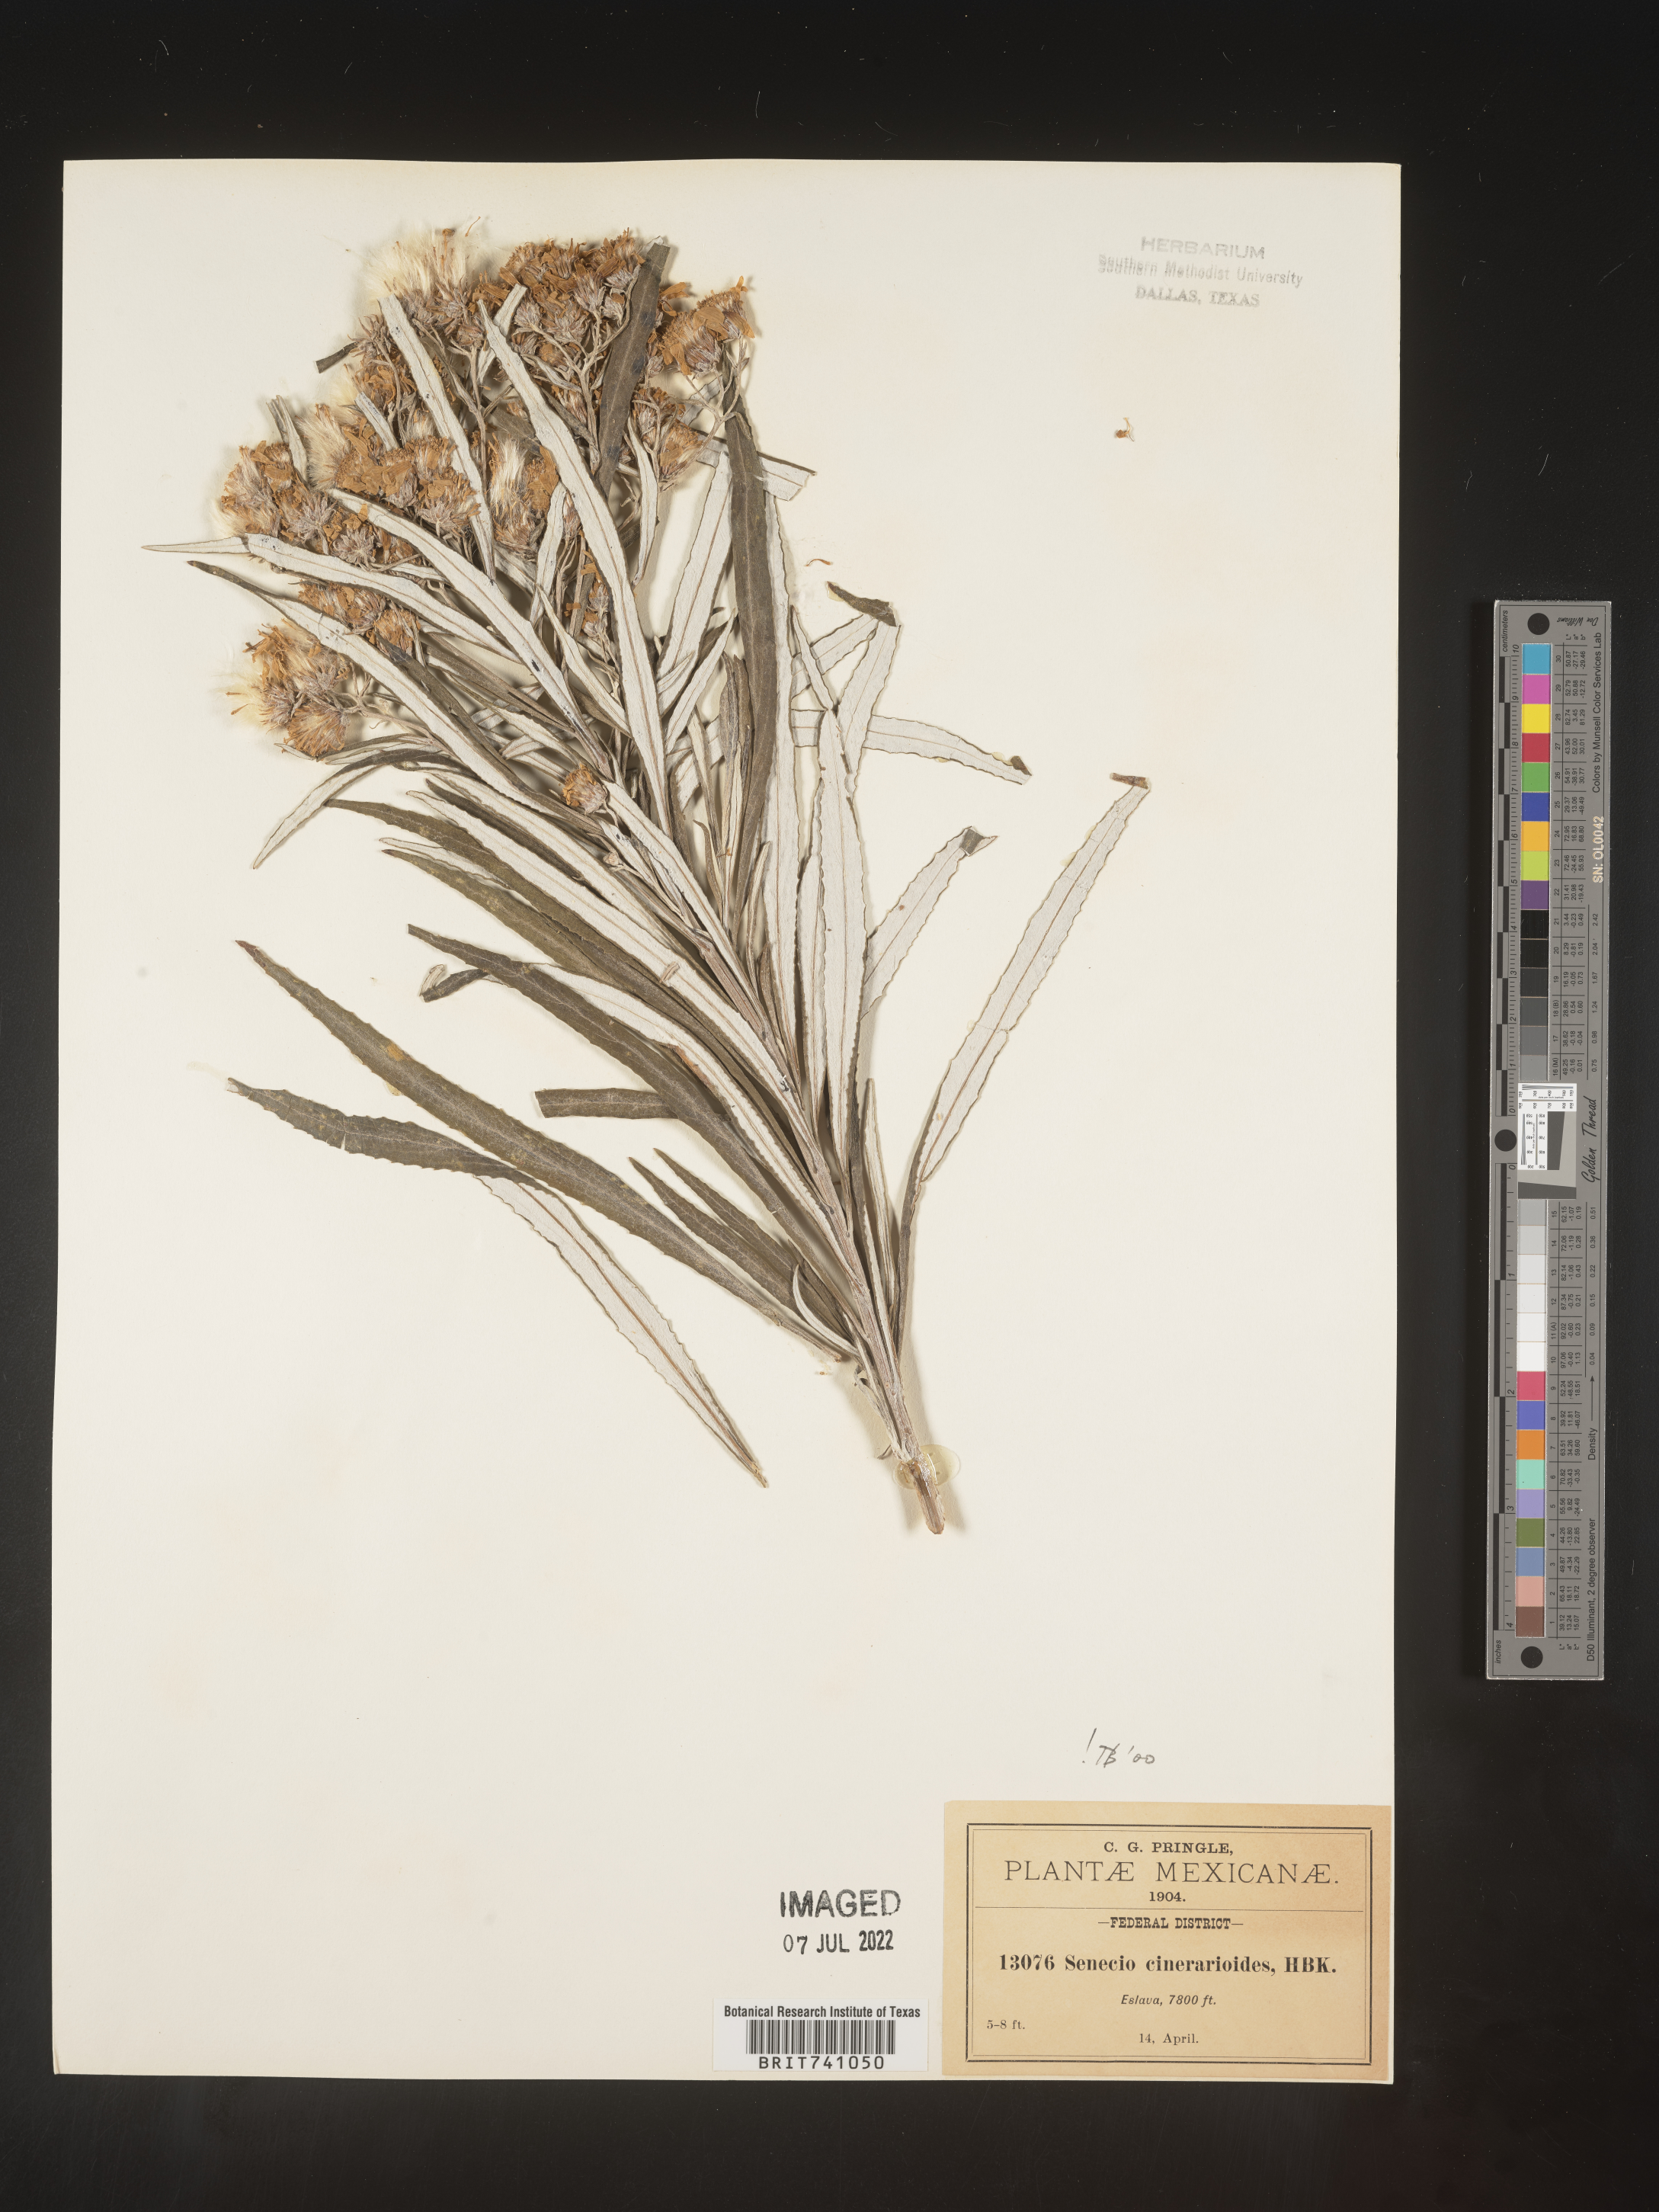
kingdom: Plantae
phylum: Tracheophyta
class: Magnoliopsida
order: Asterales
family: Asteraceae
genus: Senecio
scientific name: Senecio
